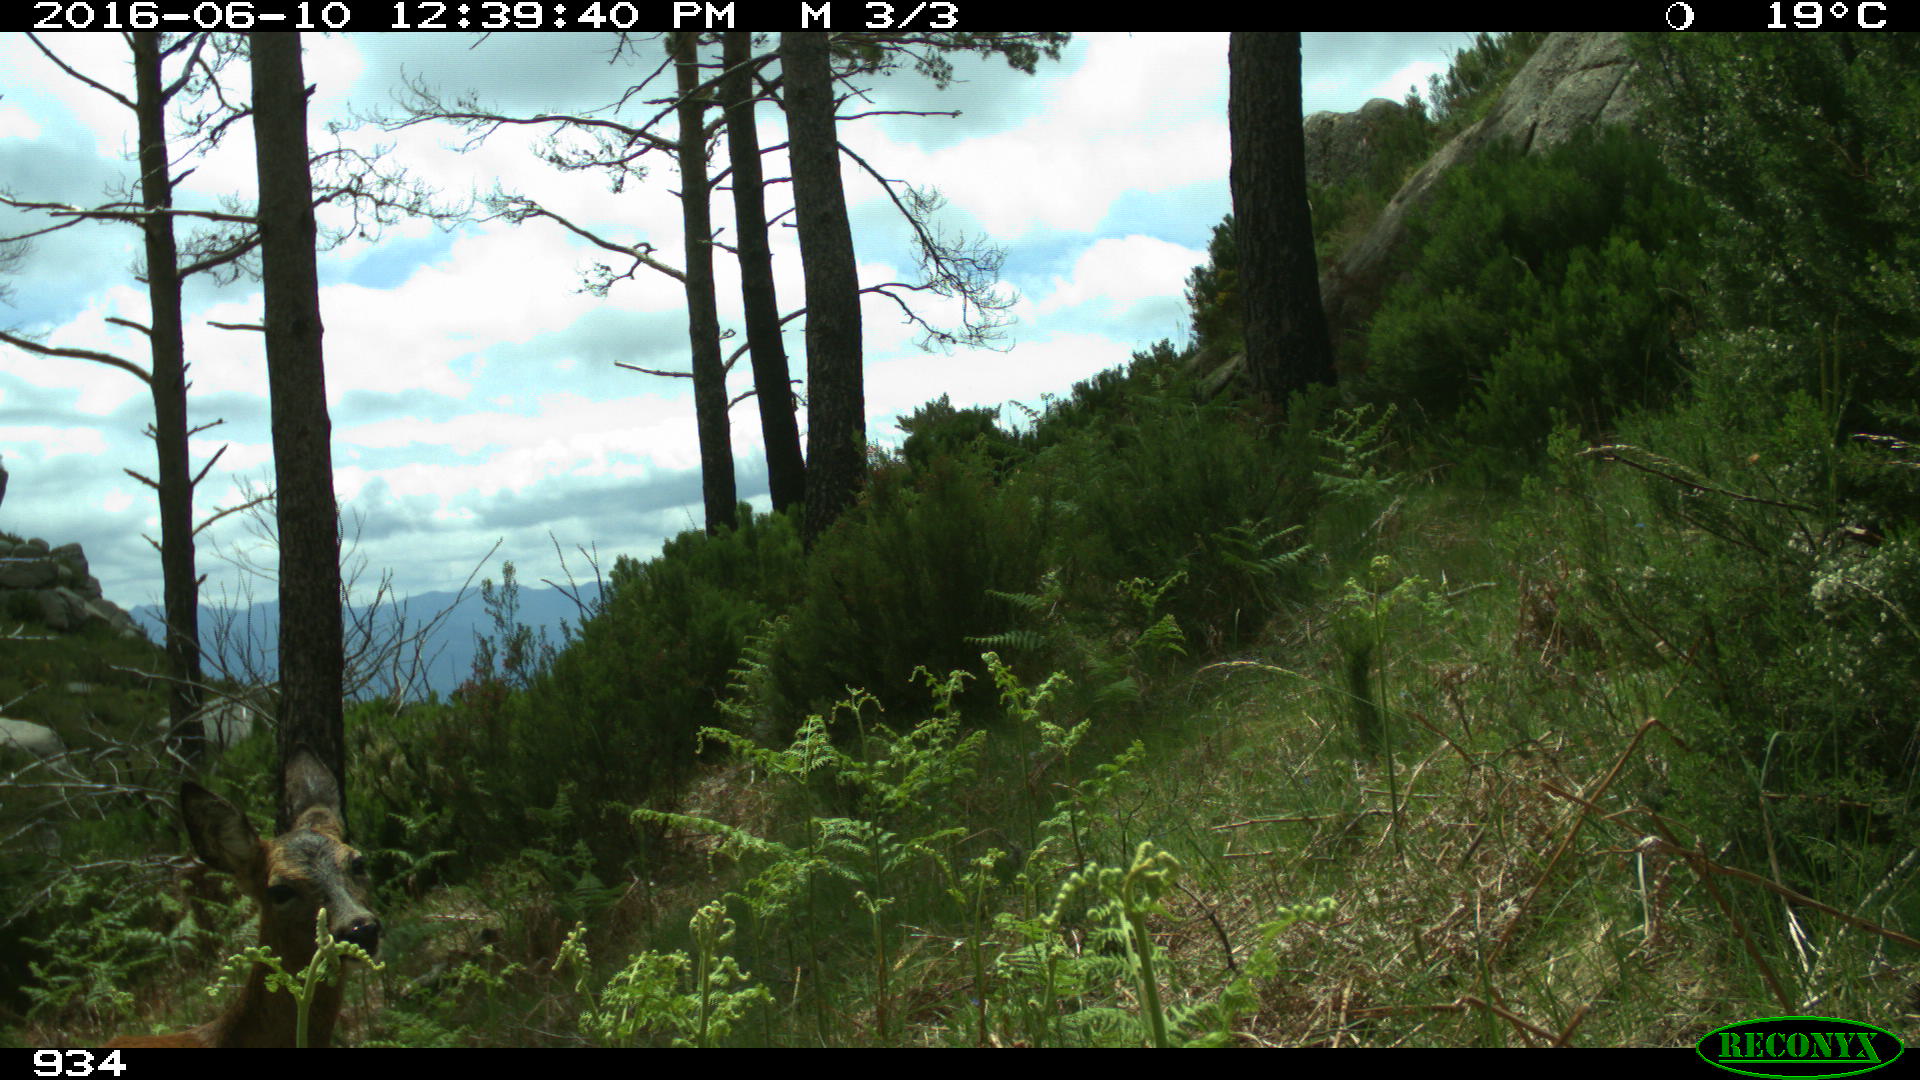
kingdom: Animalia
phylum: Chordata
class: Mammalia
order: Artiodactyla
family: Cervidae
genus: Capreolus
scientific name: Capreolus capreolus
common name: Western roe deer
